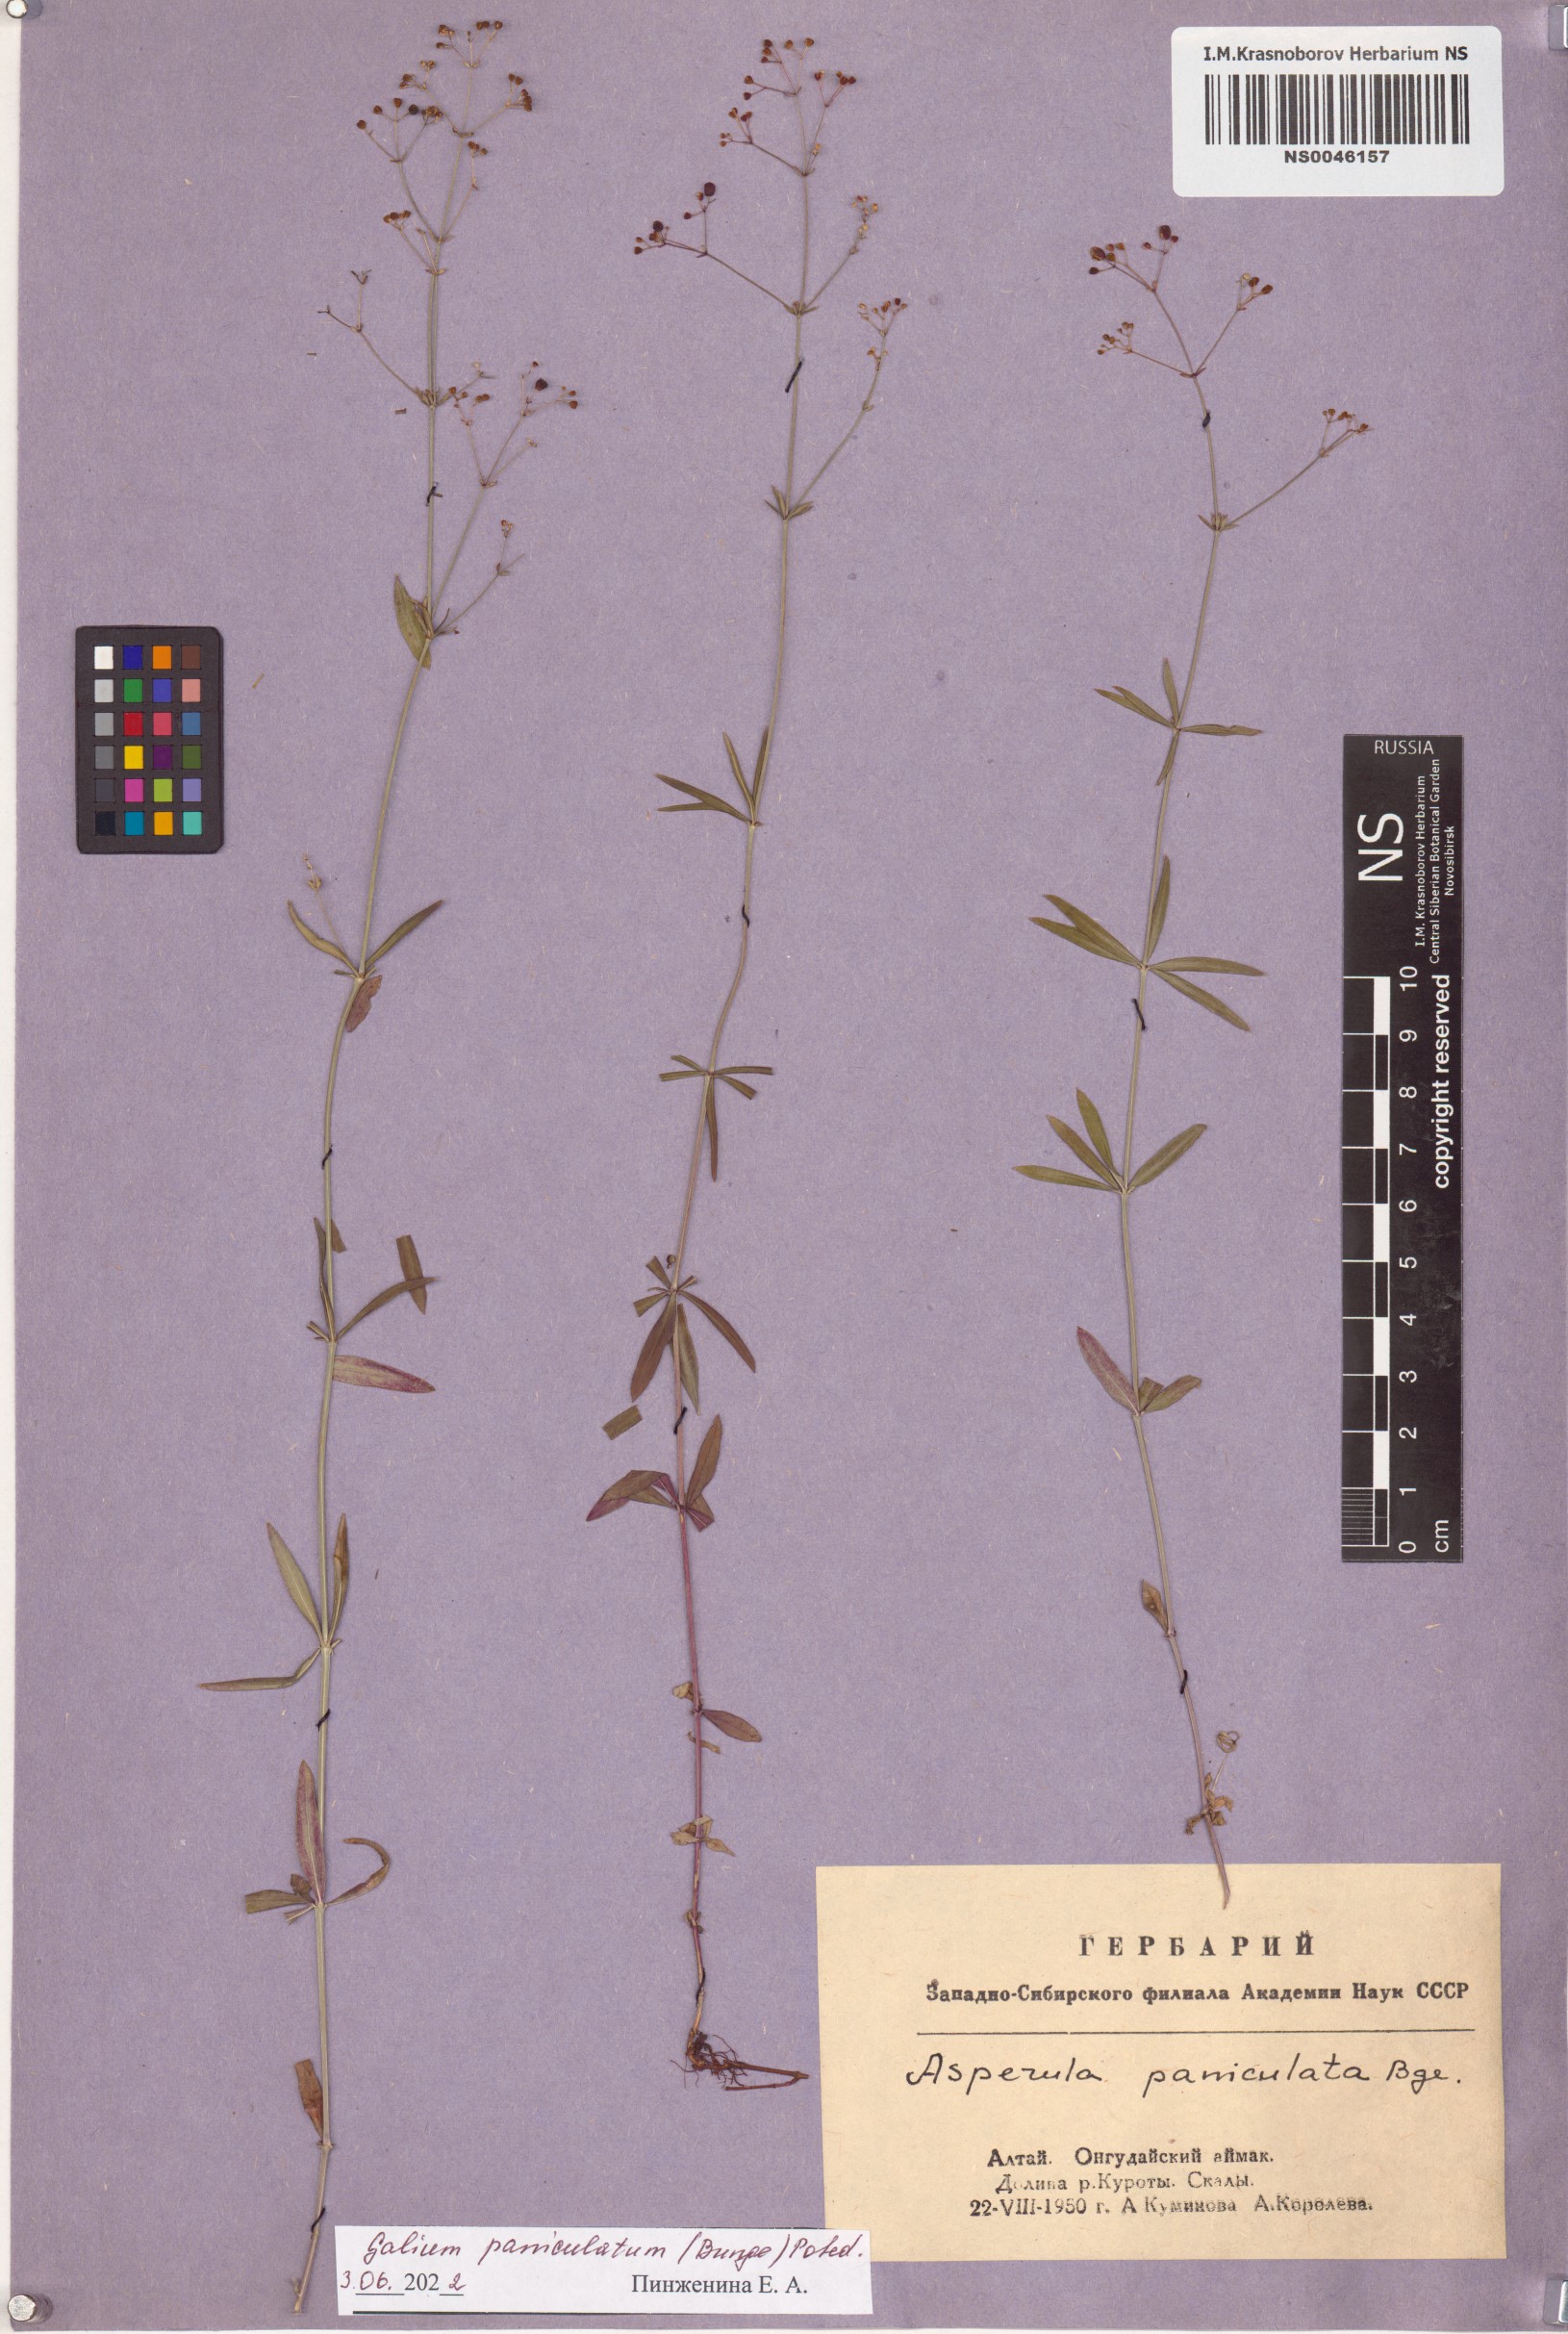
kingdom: Plantae
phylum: Tracheophyta
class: Magnoliopsida
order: Gentianales
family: Rubiaceae
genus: Galium
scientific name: Galium paniculatum
